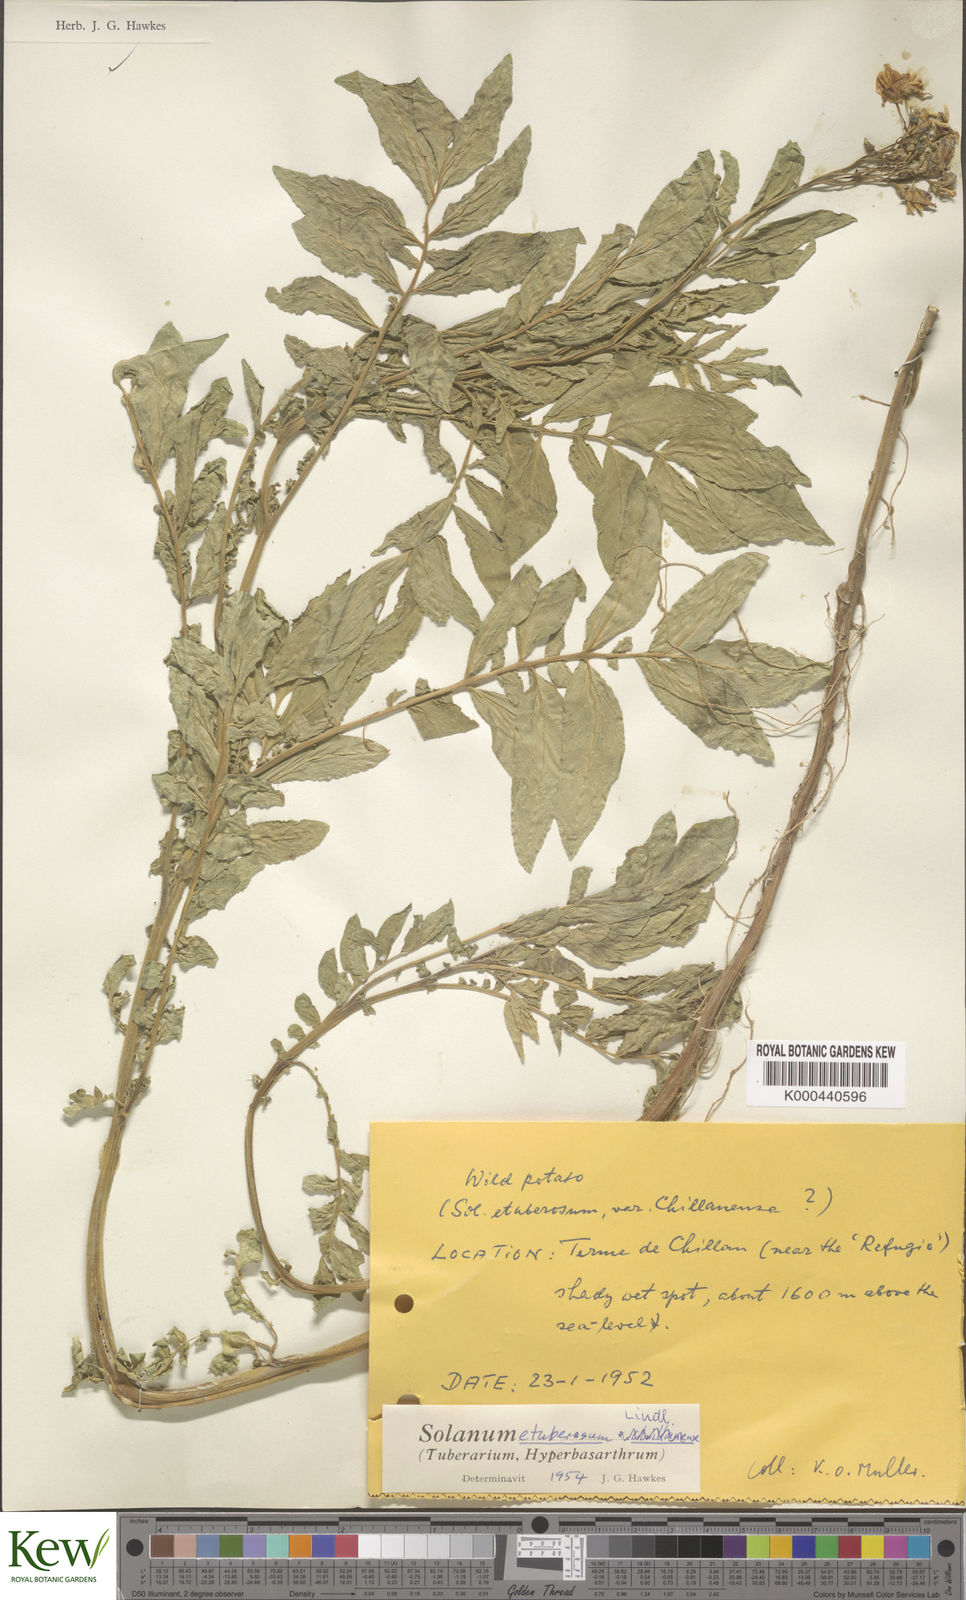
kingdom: Plantae
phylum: Tracheophyta
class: Magnoliopsida
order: Solanales
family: Solanaceae
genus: Solanum
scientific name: Solanum etuberosum
